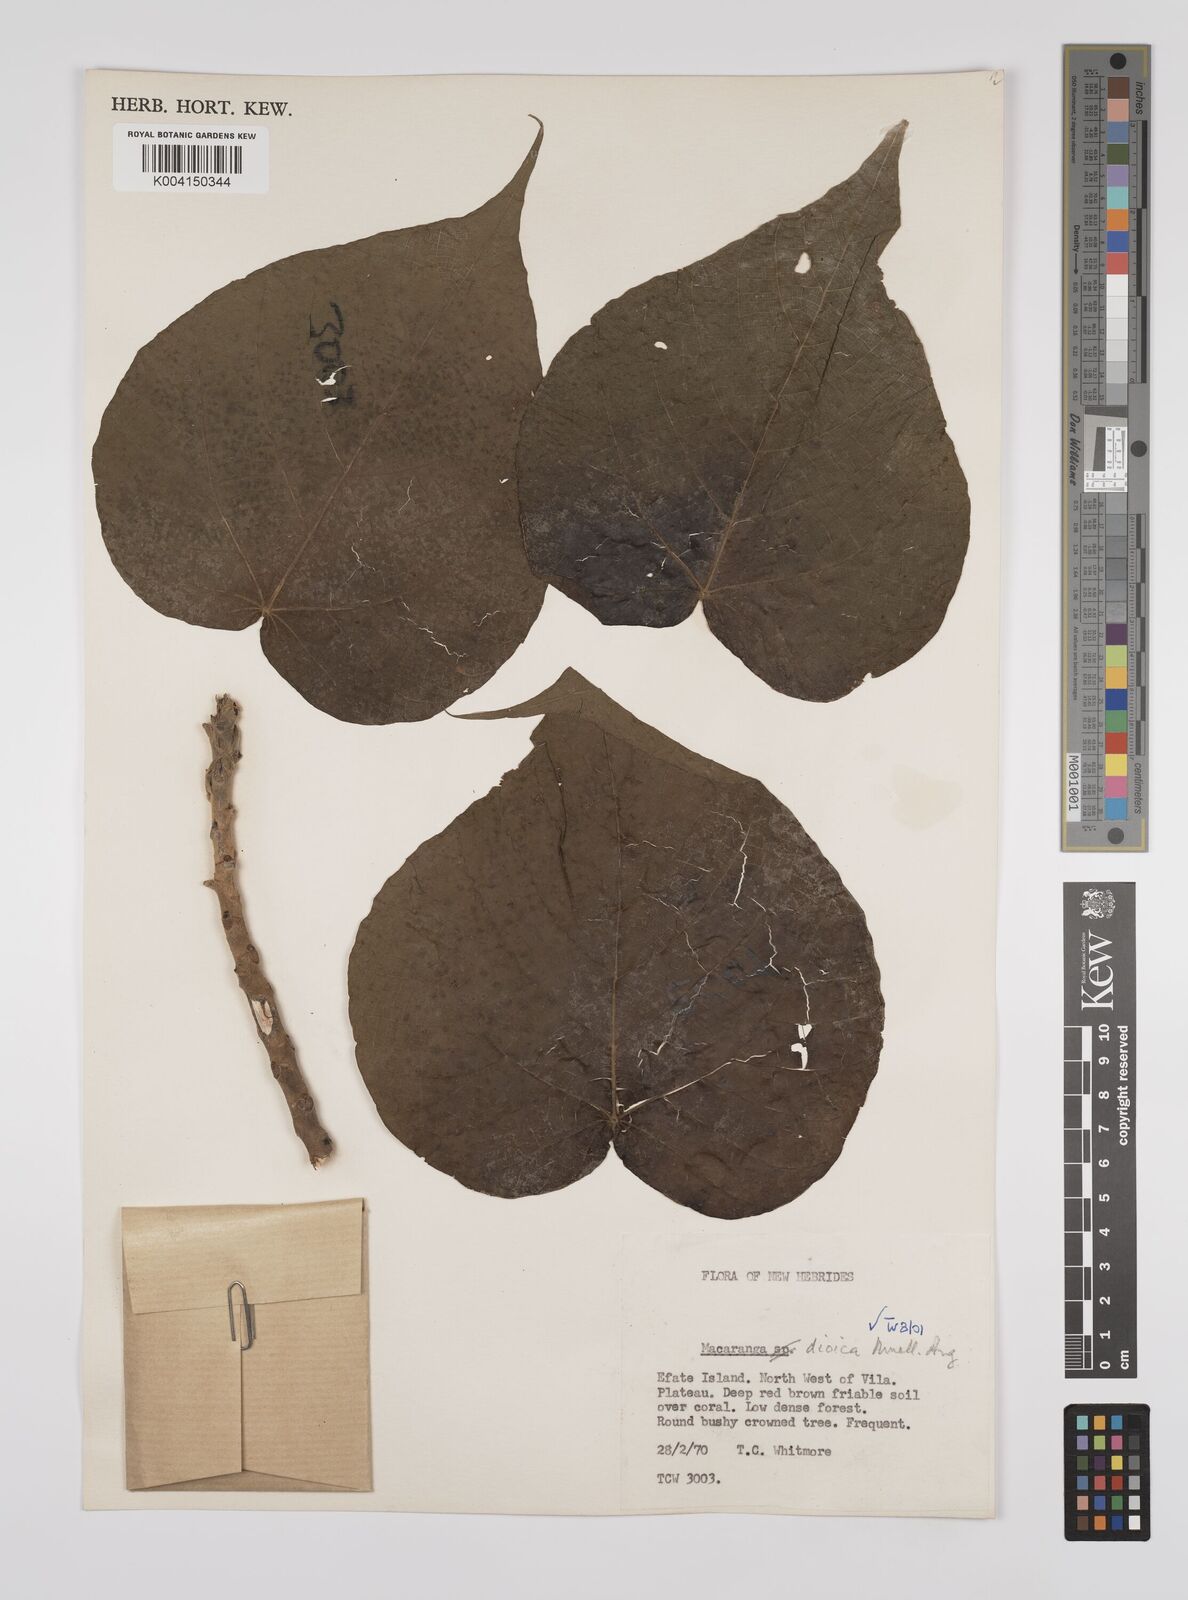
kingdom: Plantae
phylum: Tracheophyta
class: Magnoliopsida
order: Malpighiales
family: Euphorbiaceae
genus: Macaranga
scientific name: Macaranga dioica
